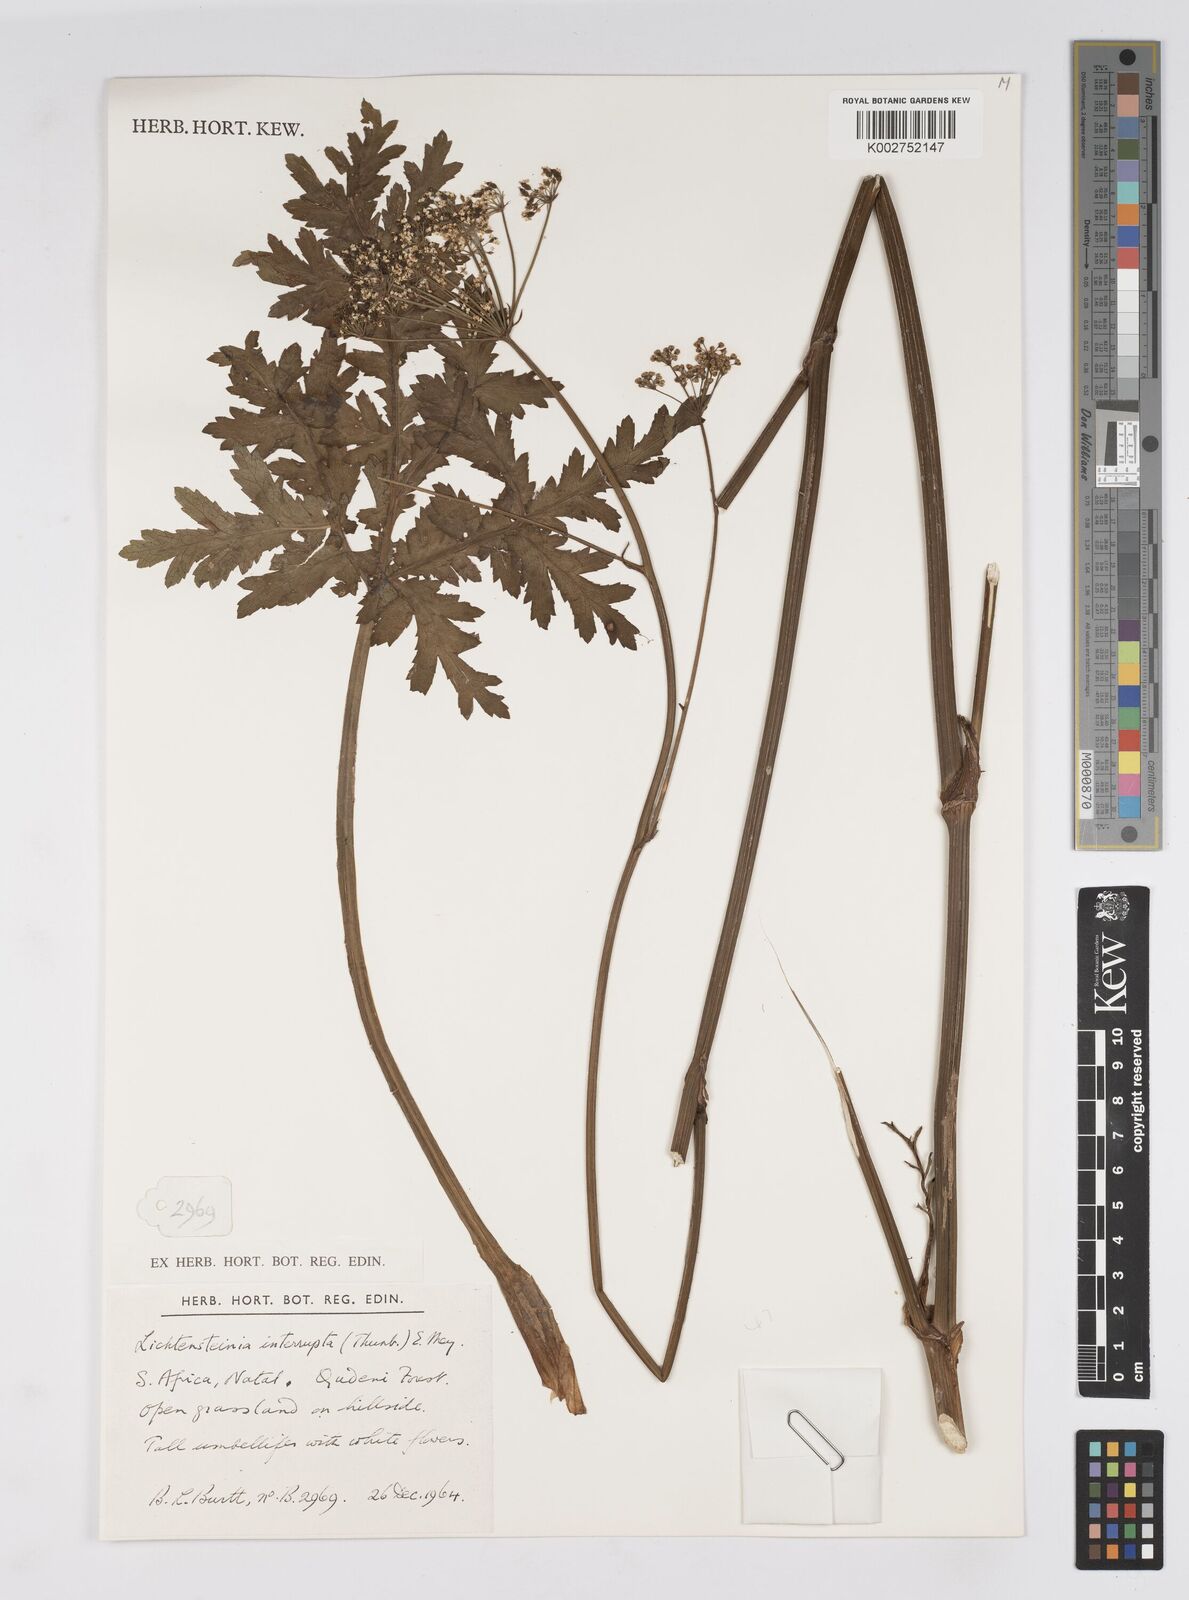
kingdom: Plantae
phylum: Tracheophyta
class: Magnoliopsida
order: Apiales
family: Apiaceae
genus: Lichtensteinia
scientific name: Lichtensteinia interrupta
